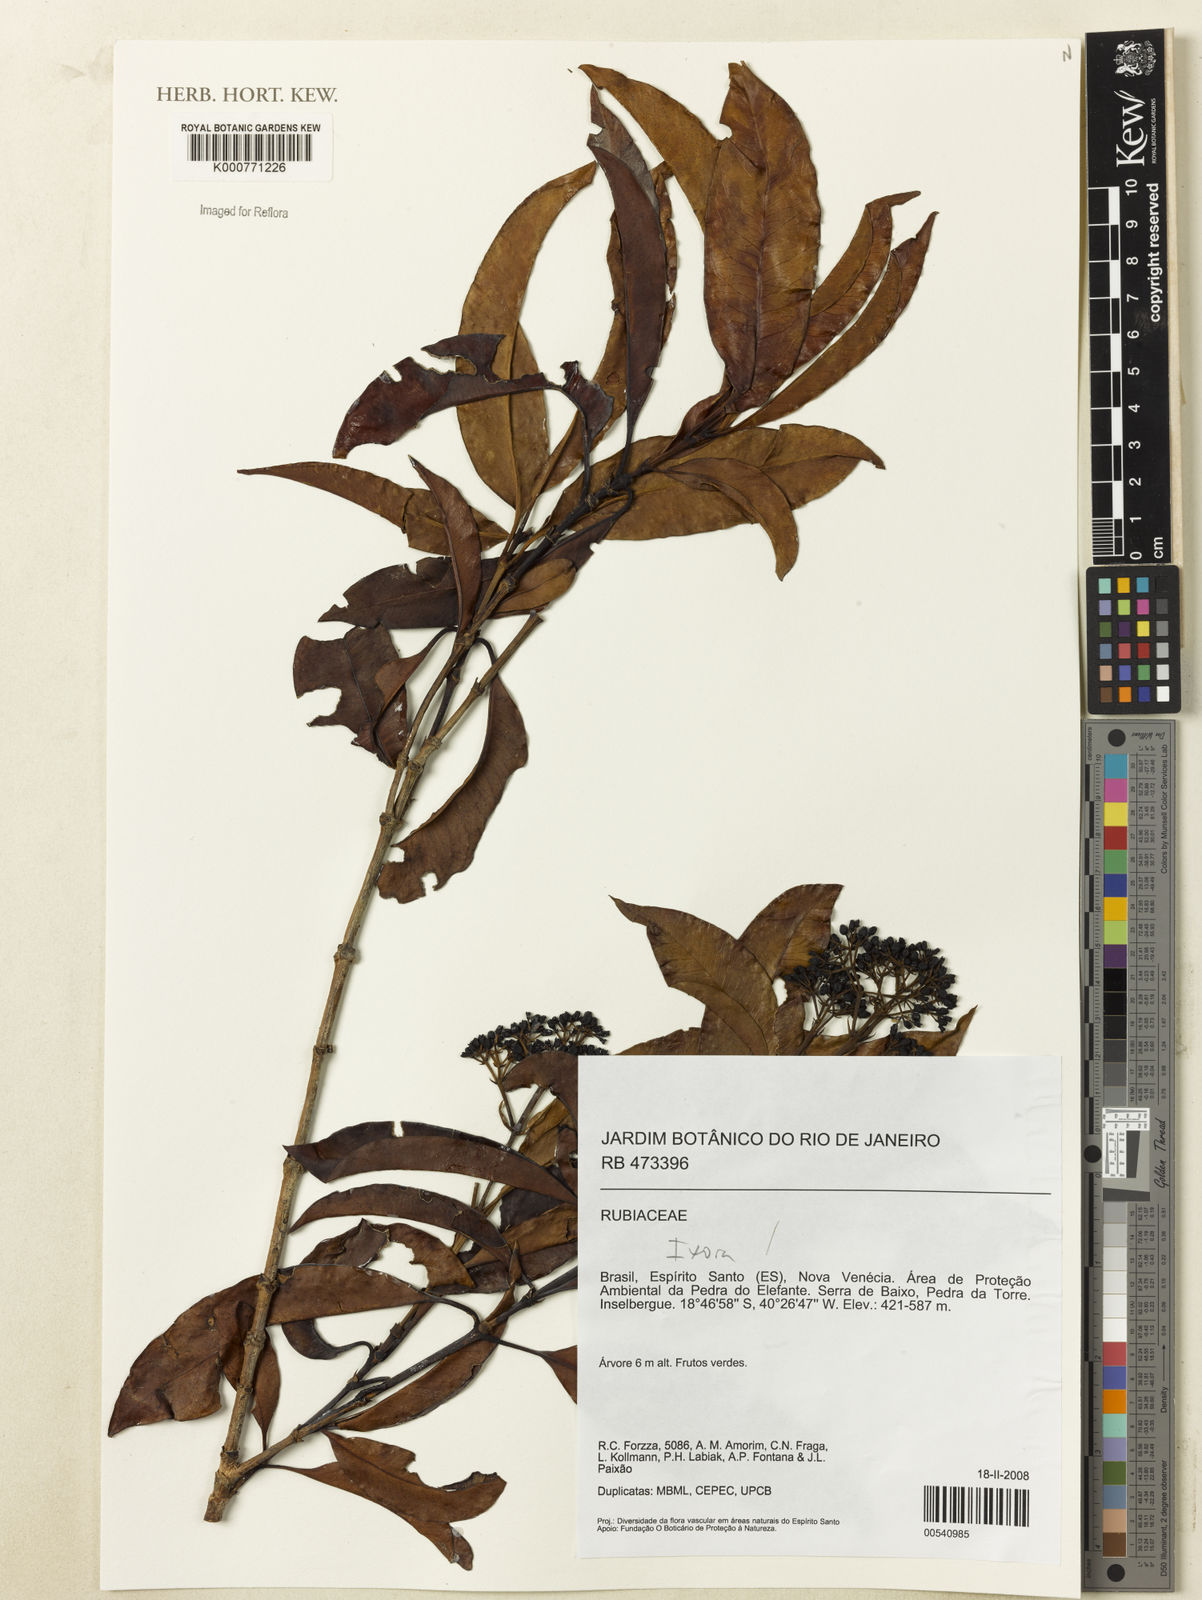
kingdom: Plantae
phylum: Tracheophyta
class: Magnoliopsida
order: Gentianales
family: Rubiaceae
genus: Ixora
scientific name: Ixora
